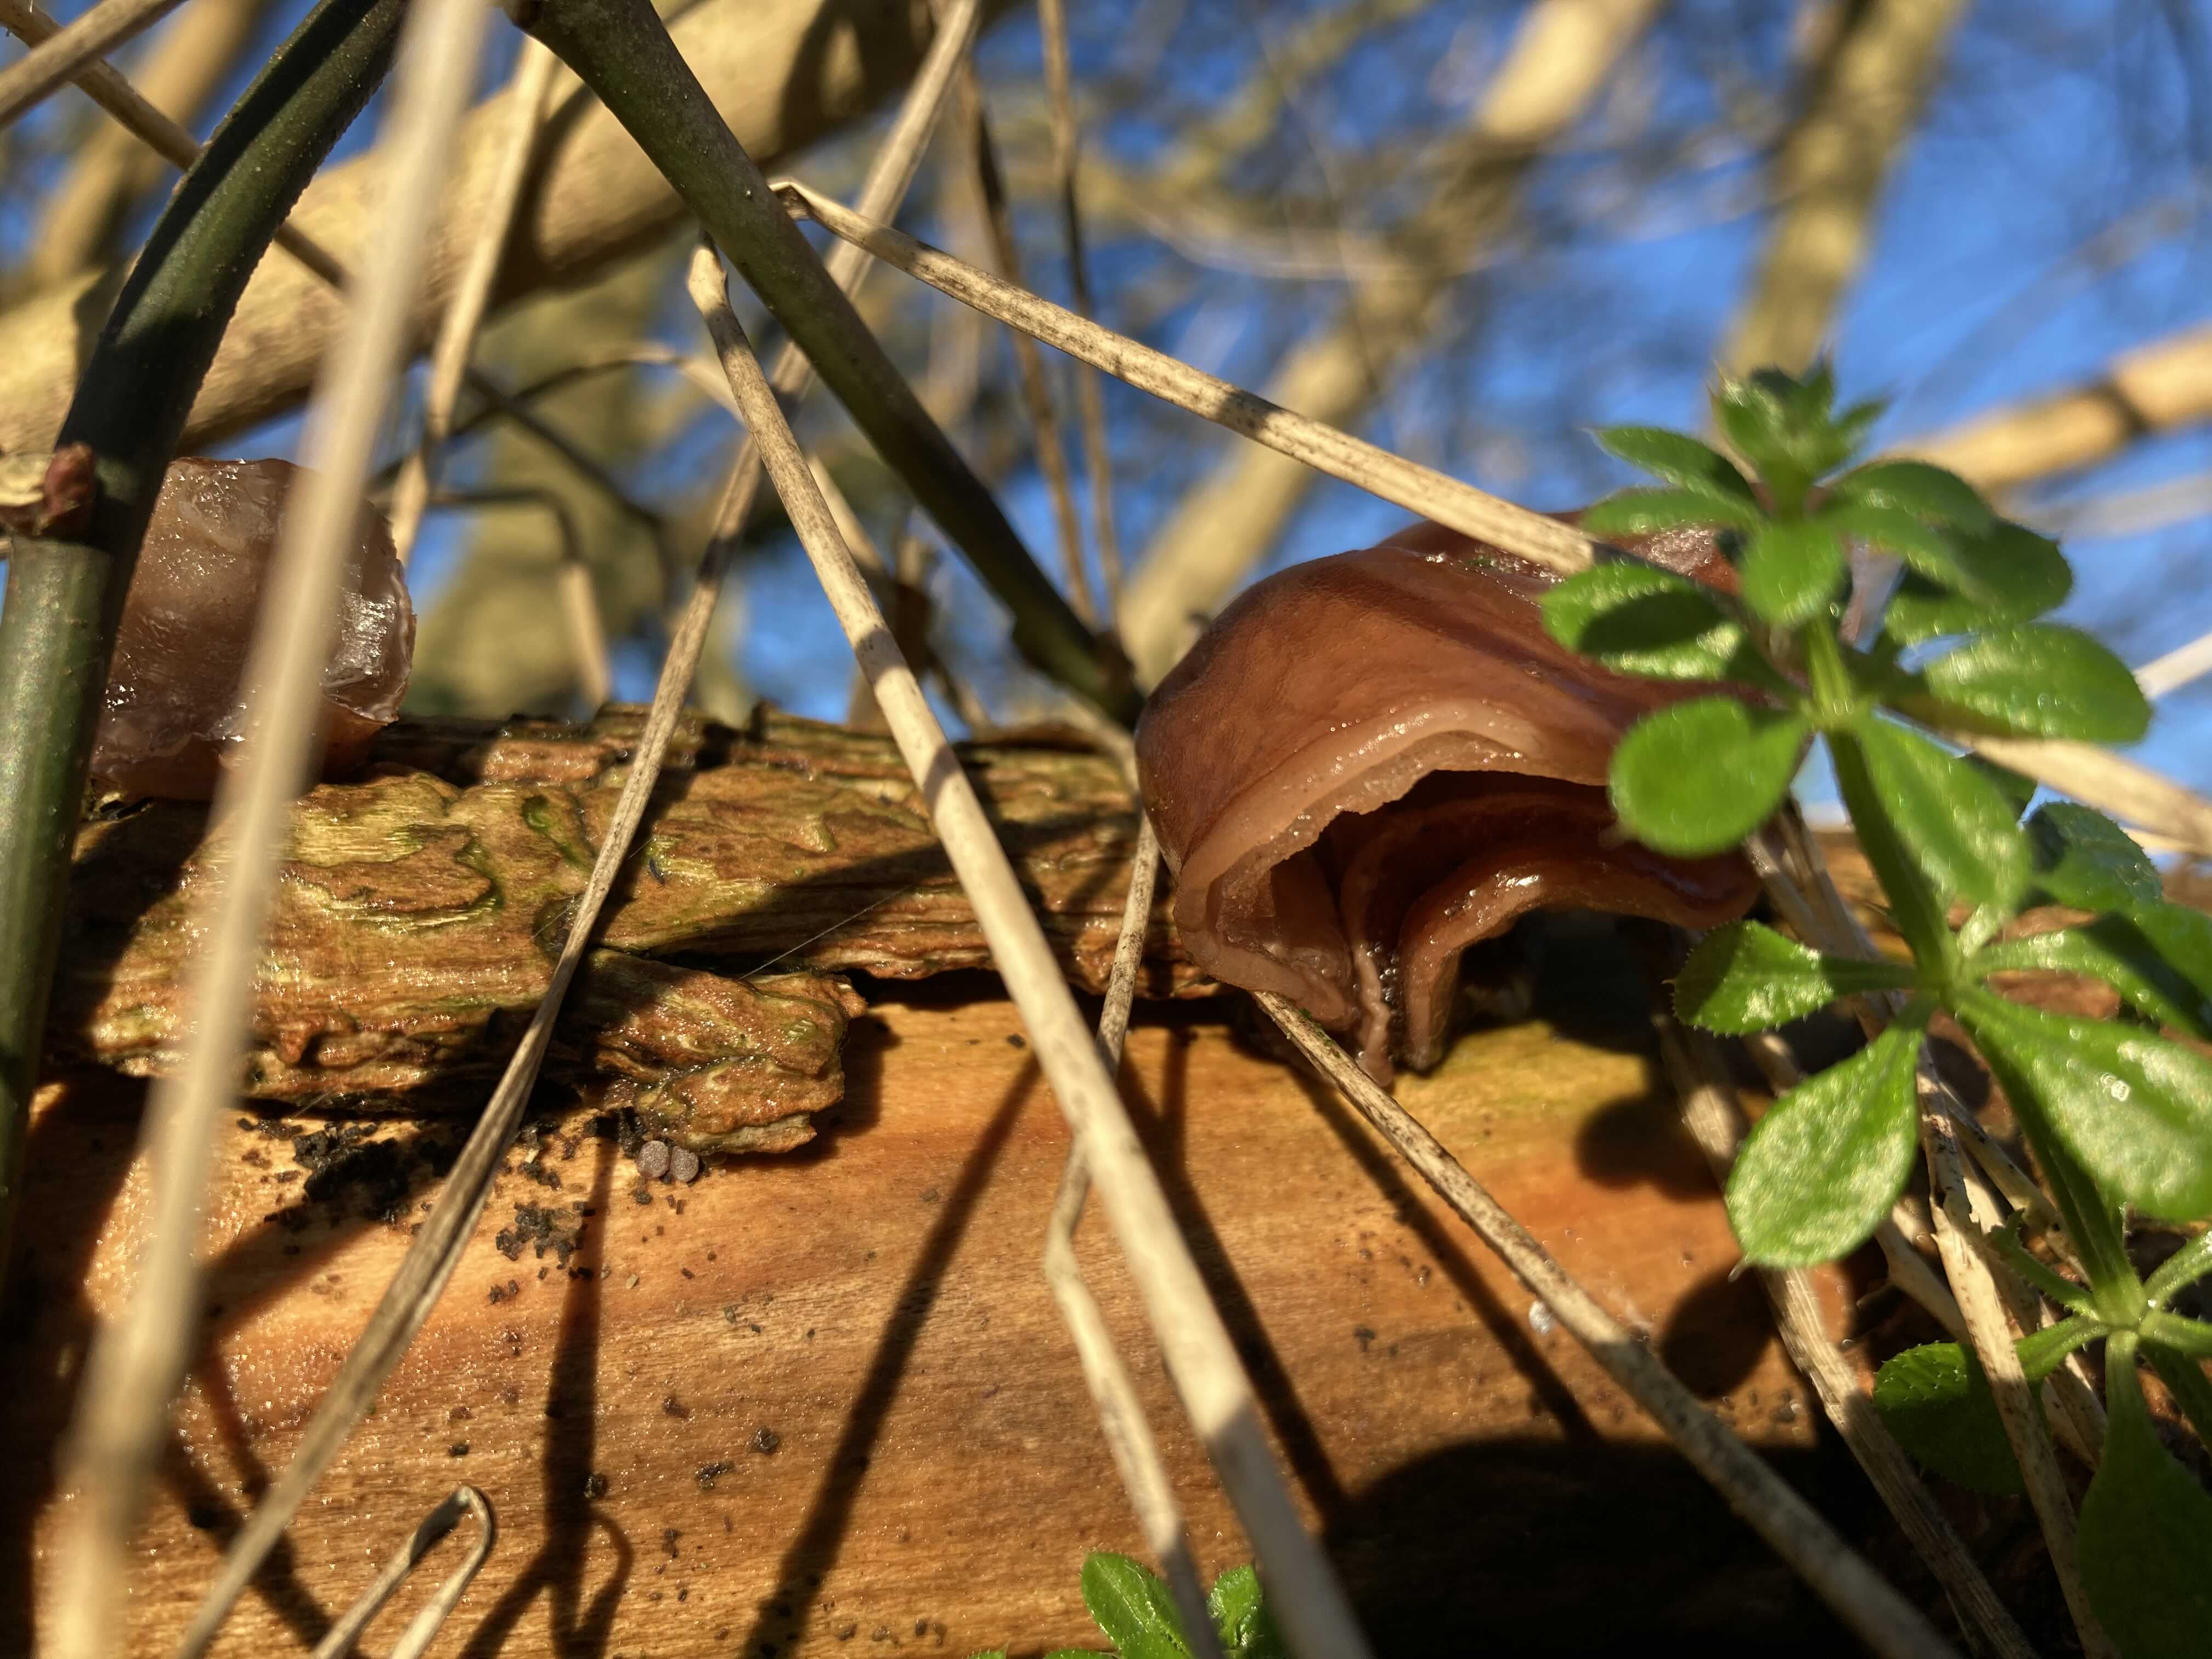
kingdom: Fungi
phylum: Basidiomycota
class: Agaricomycetes
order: Auriculariales
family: Auriculariaceae
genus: Auricularia
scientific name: Auricularia auricula-judae
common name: almindelig judasøre
